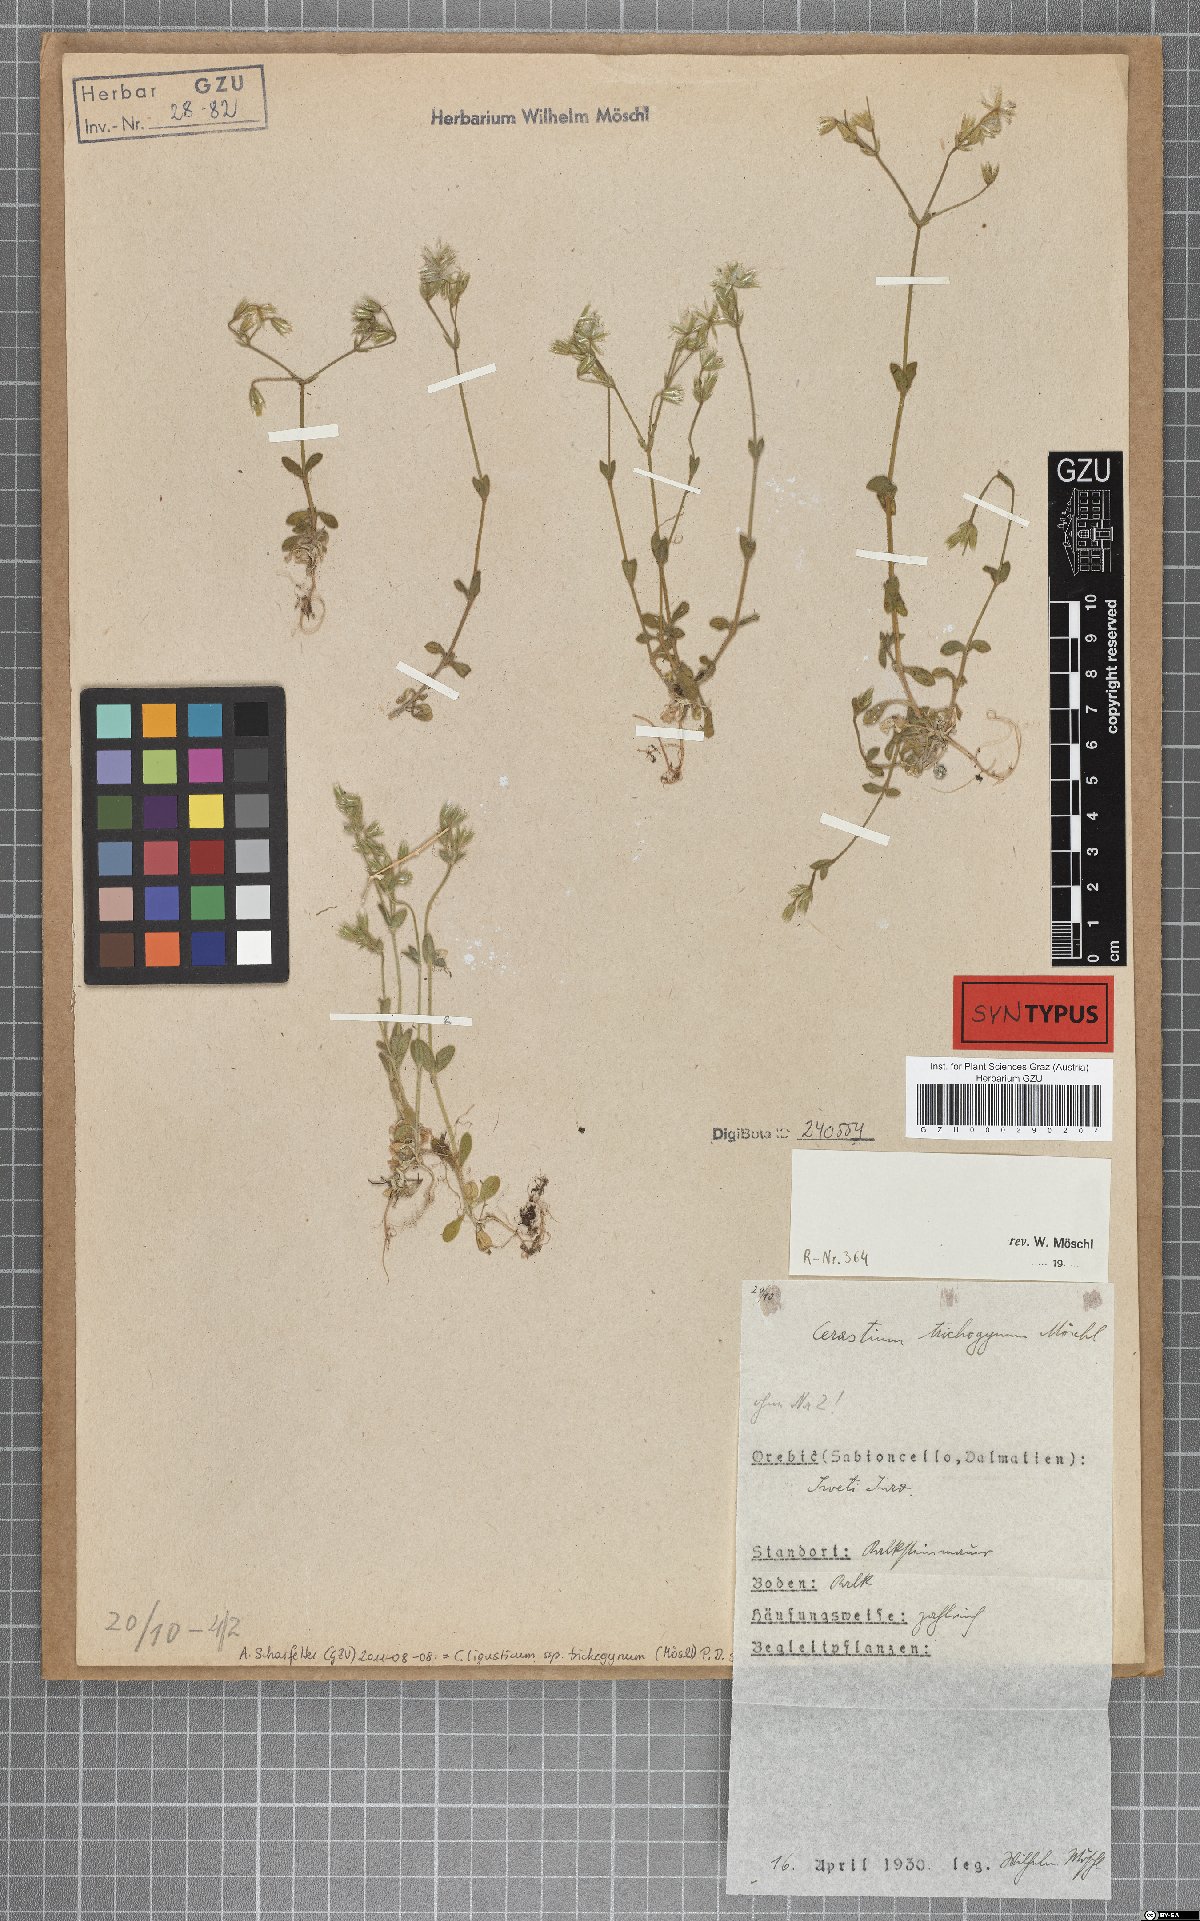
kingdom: Plantae
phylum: Tracheophyta
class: Magnoliopsida
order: Caryophyllales
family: Caryophyllaceae
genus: Cerastium
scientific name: Cerastium ligusticum
